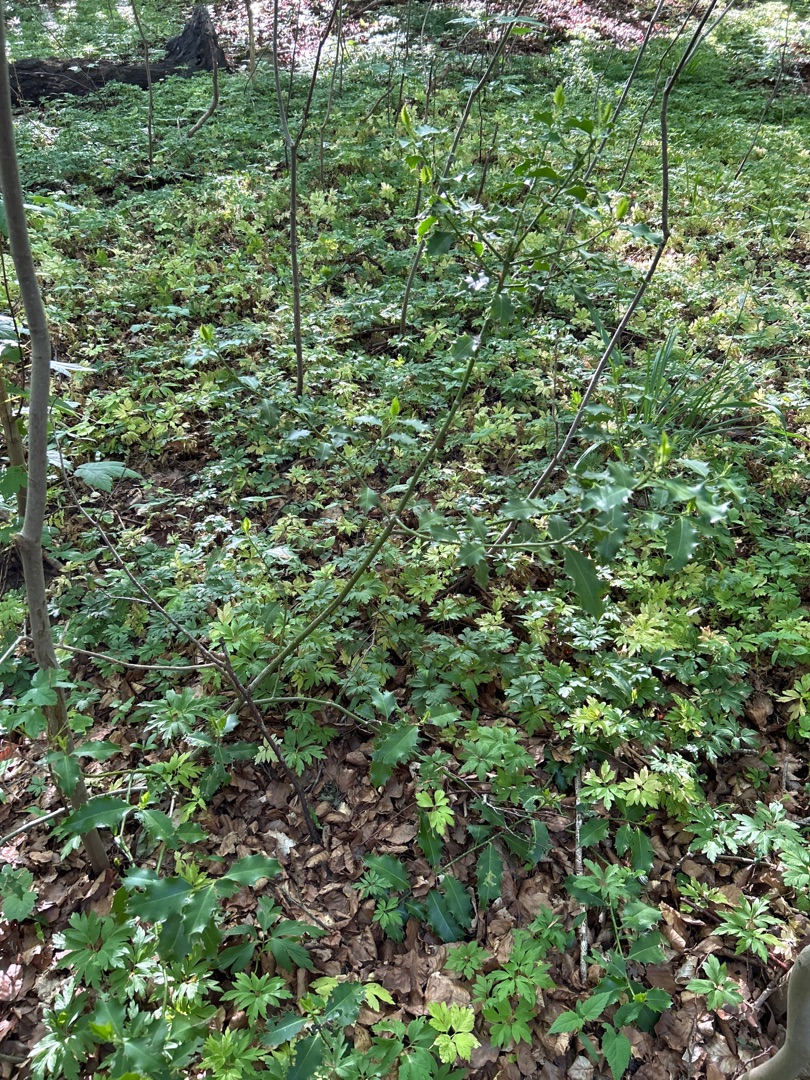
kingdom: Plantae
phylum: Tracheophyta
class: Magnoliopsida
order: Aquifoliales
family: Aquifoliaceae
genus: Ilex
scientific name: Ilex aquifolium
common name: Kristtorn
